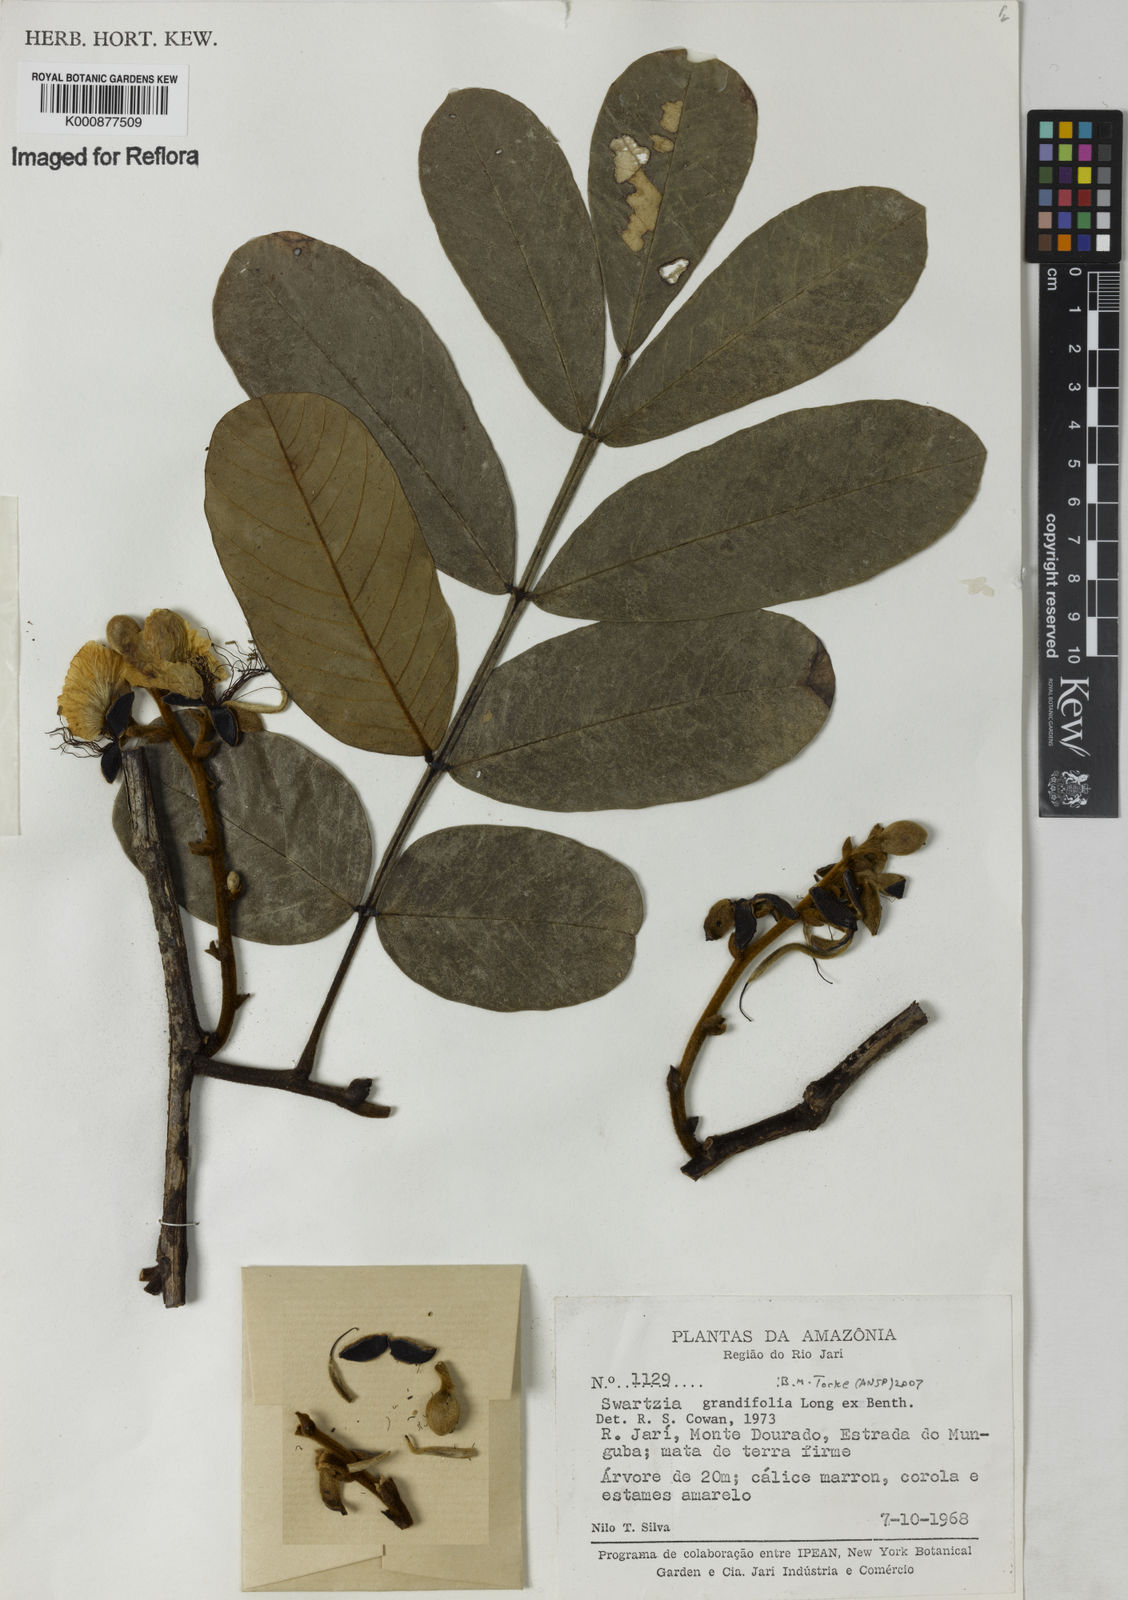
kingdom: Plantae
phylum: Tracheophyta
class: Magnoliopsida
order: Fabales
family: Fabaceae
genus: Swartzia
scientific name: Swartzia grandifolia
